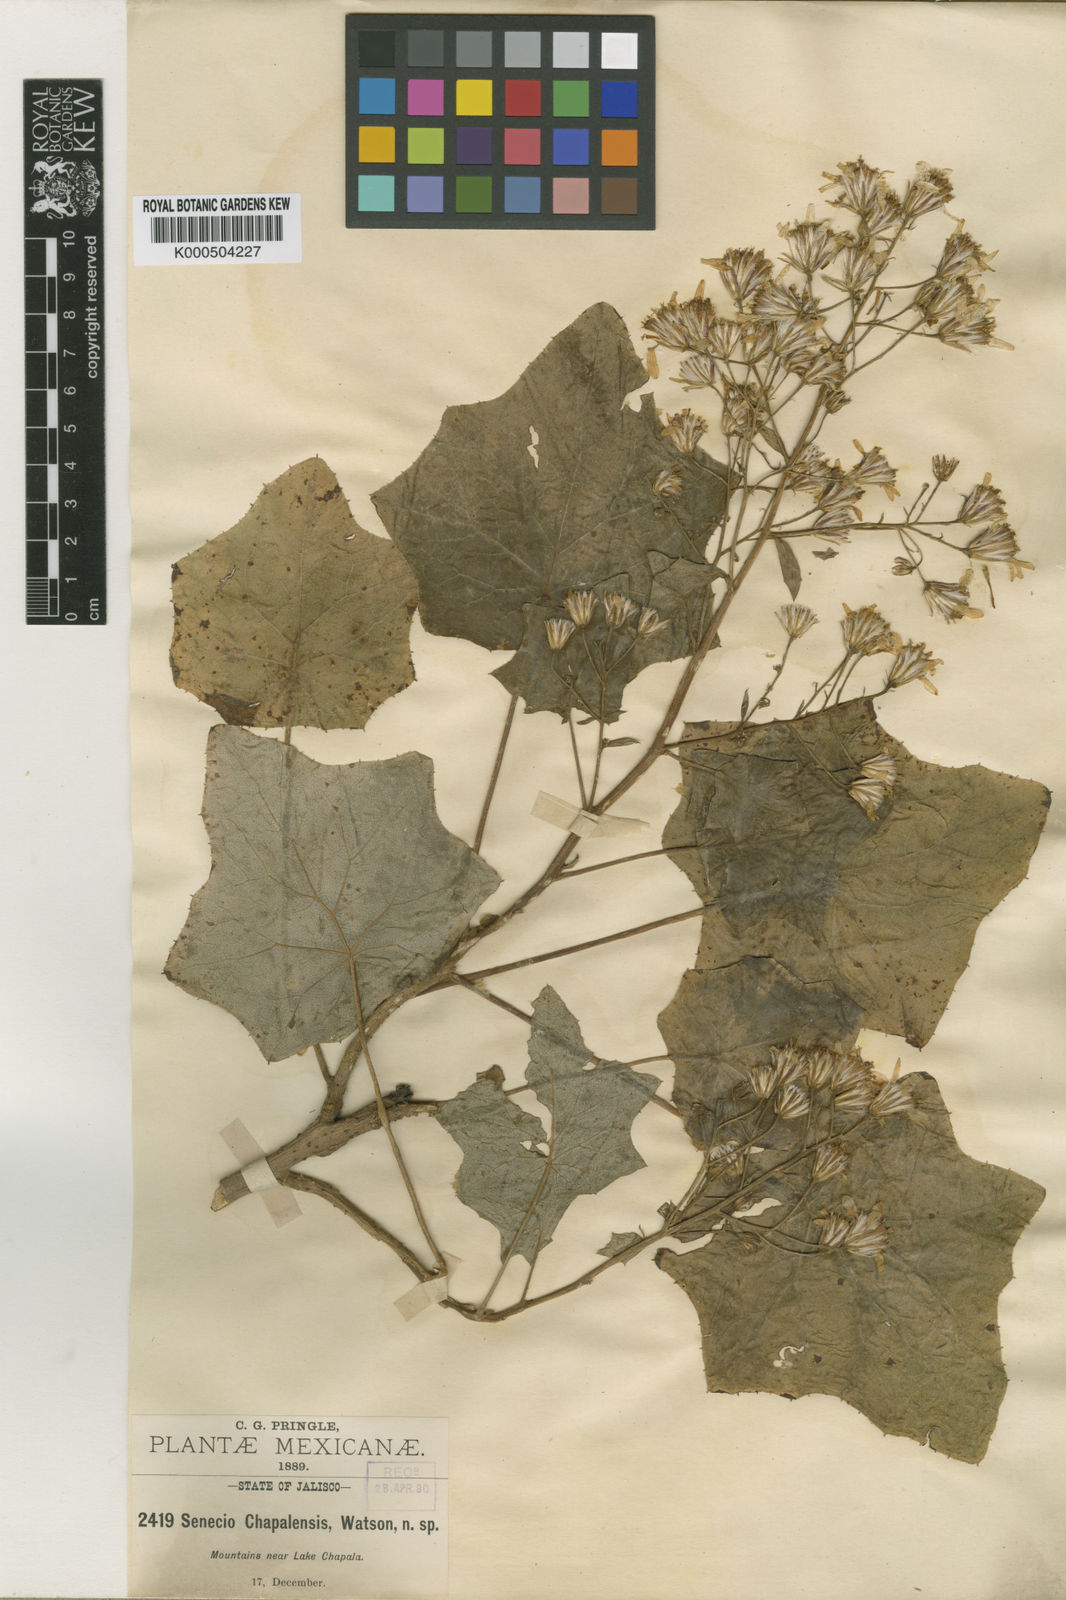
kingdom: Plantae
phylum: Tracheophyta
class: Magnoliopsida
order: Asterales
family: Asteraceae
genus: Roldana
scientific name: Roldana chapalensis
